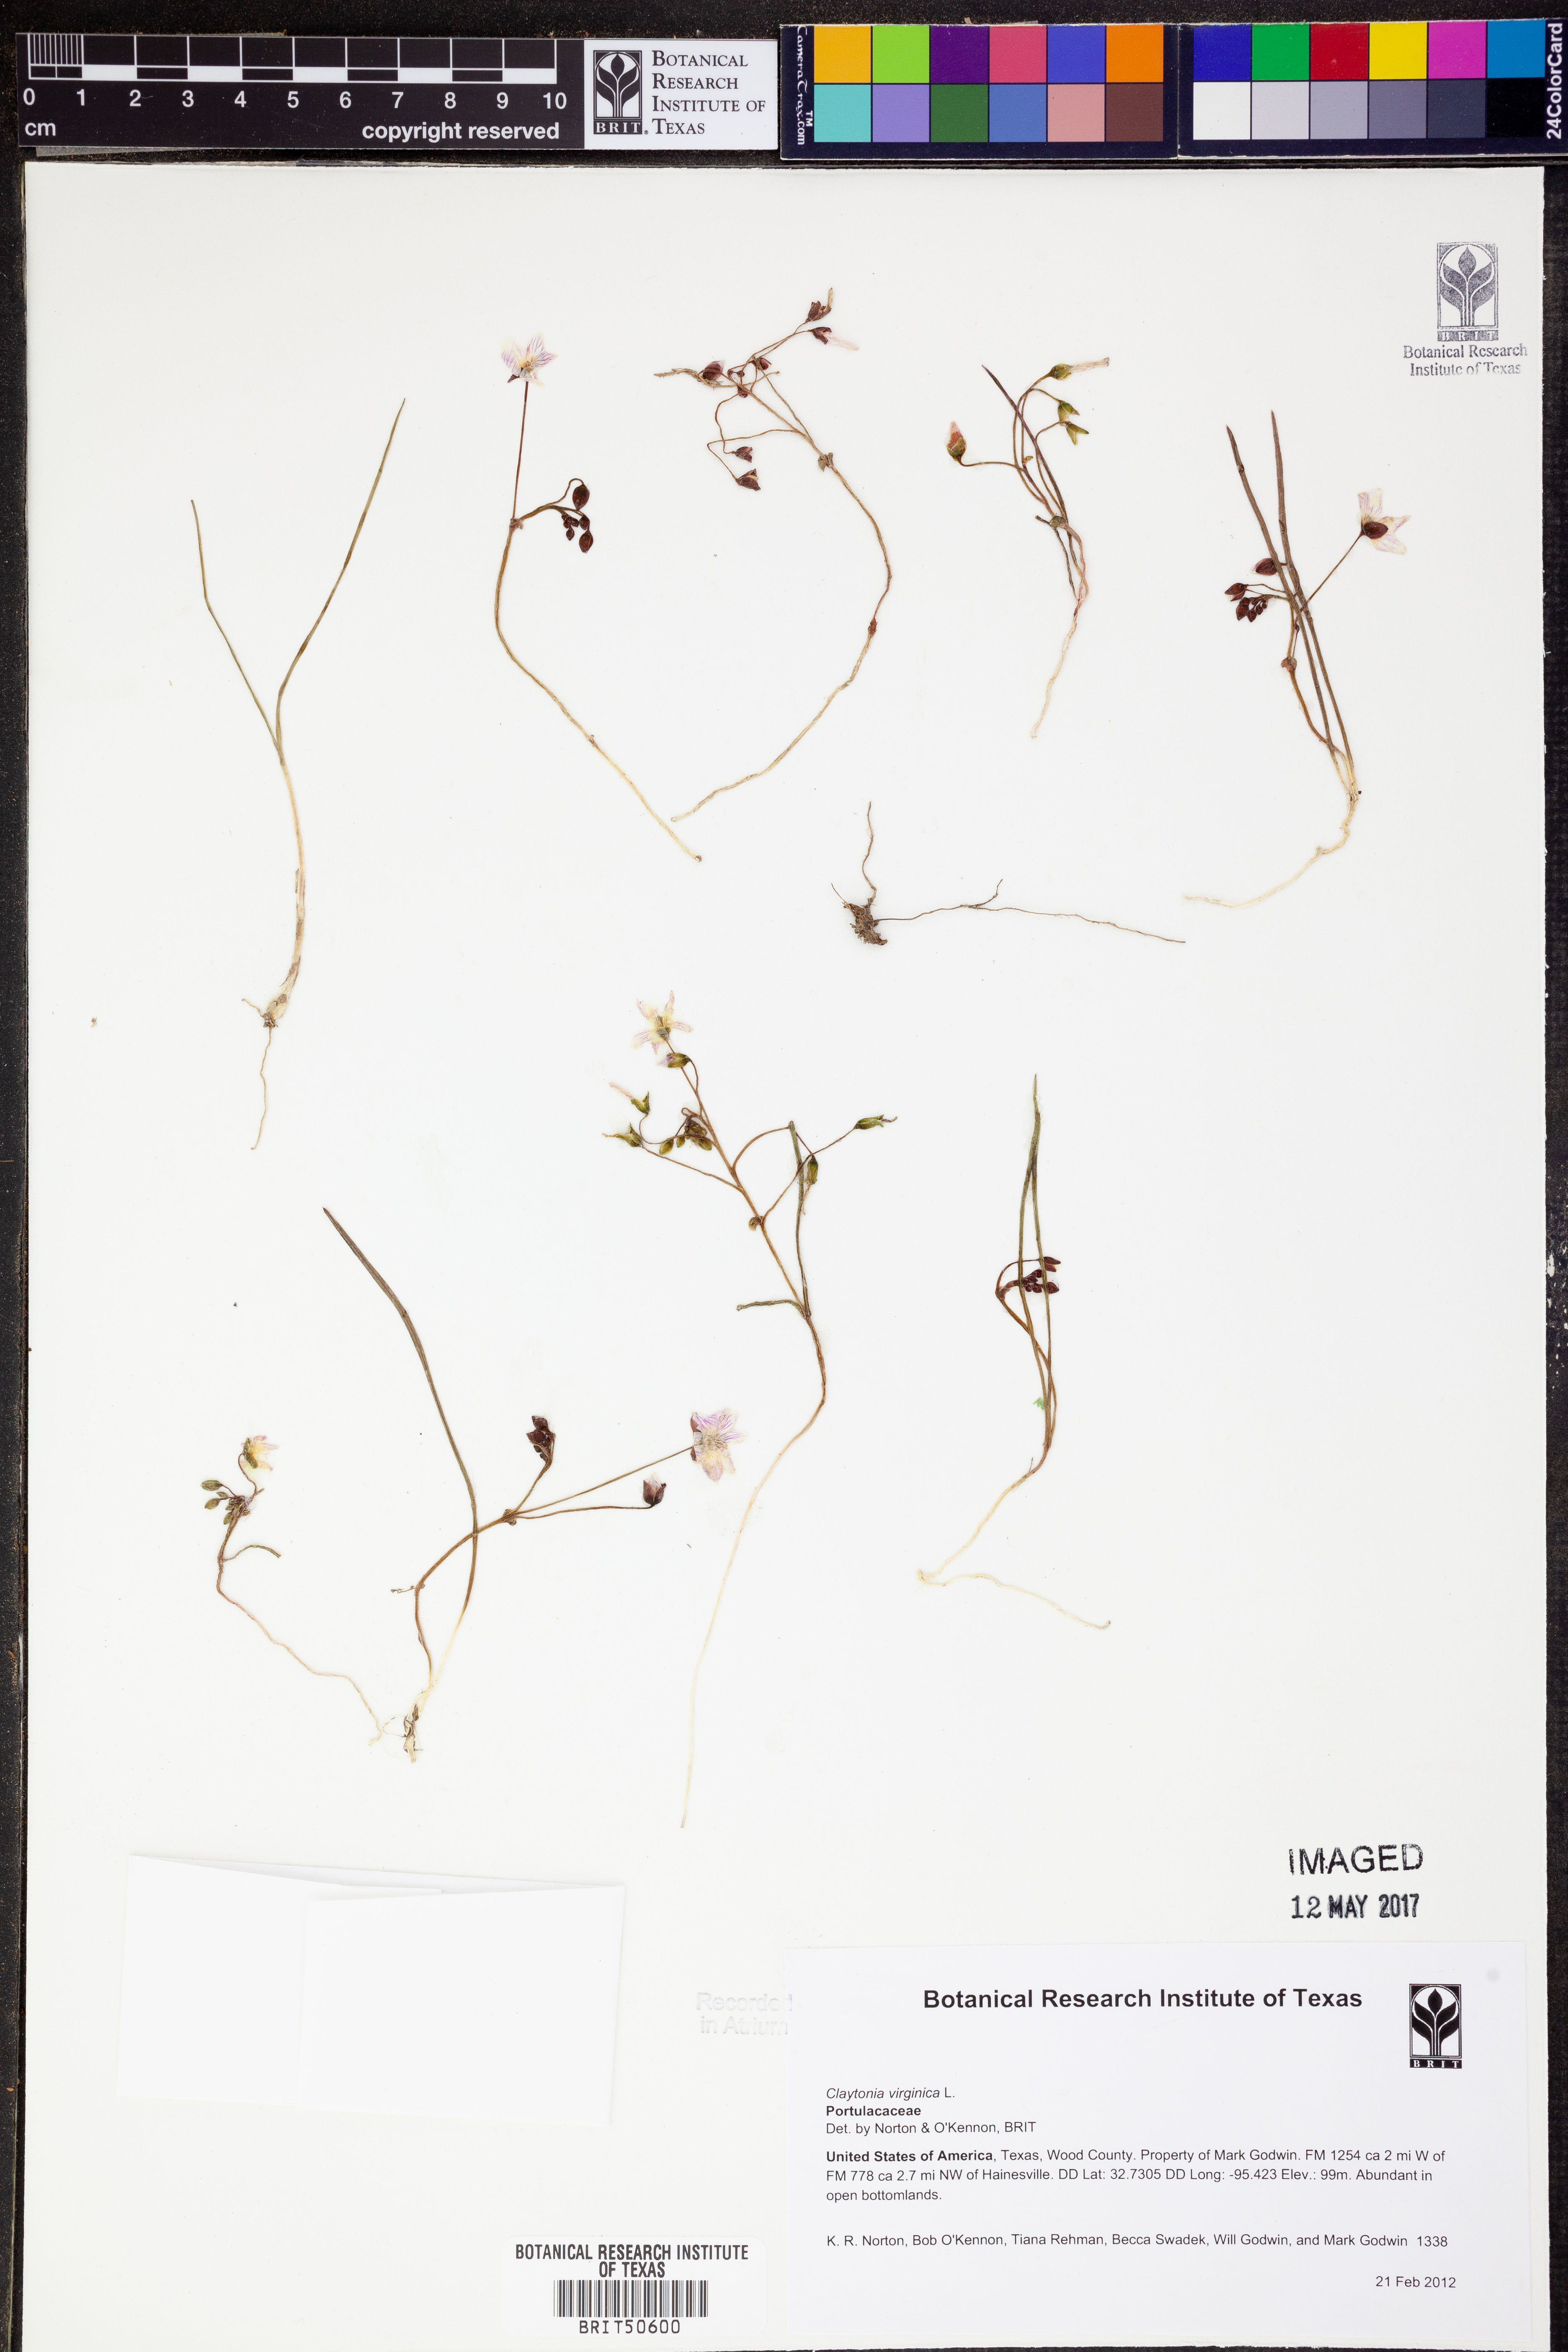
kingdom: Plantae
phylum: Tracheophyta
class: Magnoliopsida
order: Caryophyllales
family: Montiaceae
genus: Claytonia
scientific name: Claytonia virginica
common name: Virginia springbeauty
